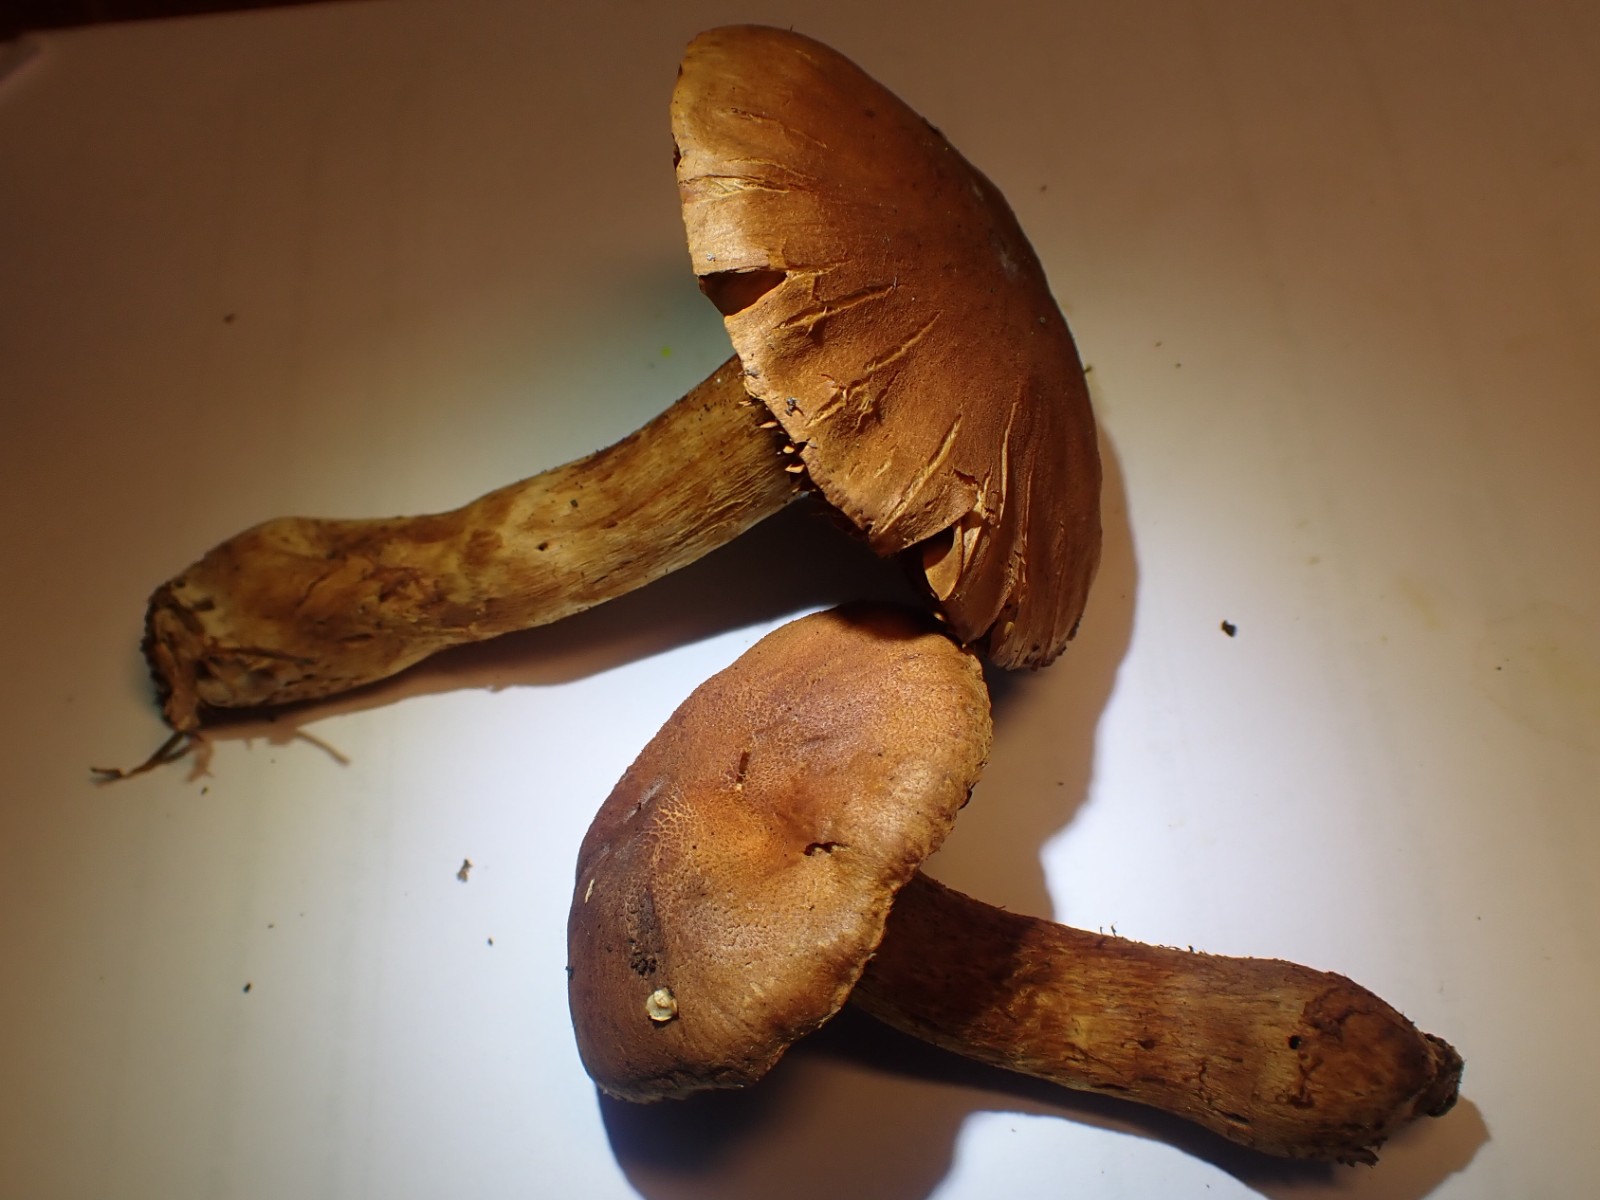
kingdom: Fungi
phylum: Basidiomycota
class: Agaricomycetes
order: Agaricales
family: Cortinariaceae
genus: Cortinarius
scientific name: Cortinarius rubellus
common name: puklet gift-slørhat
